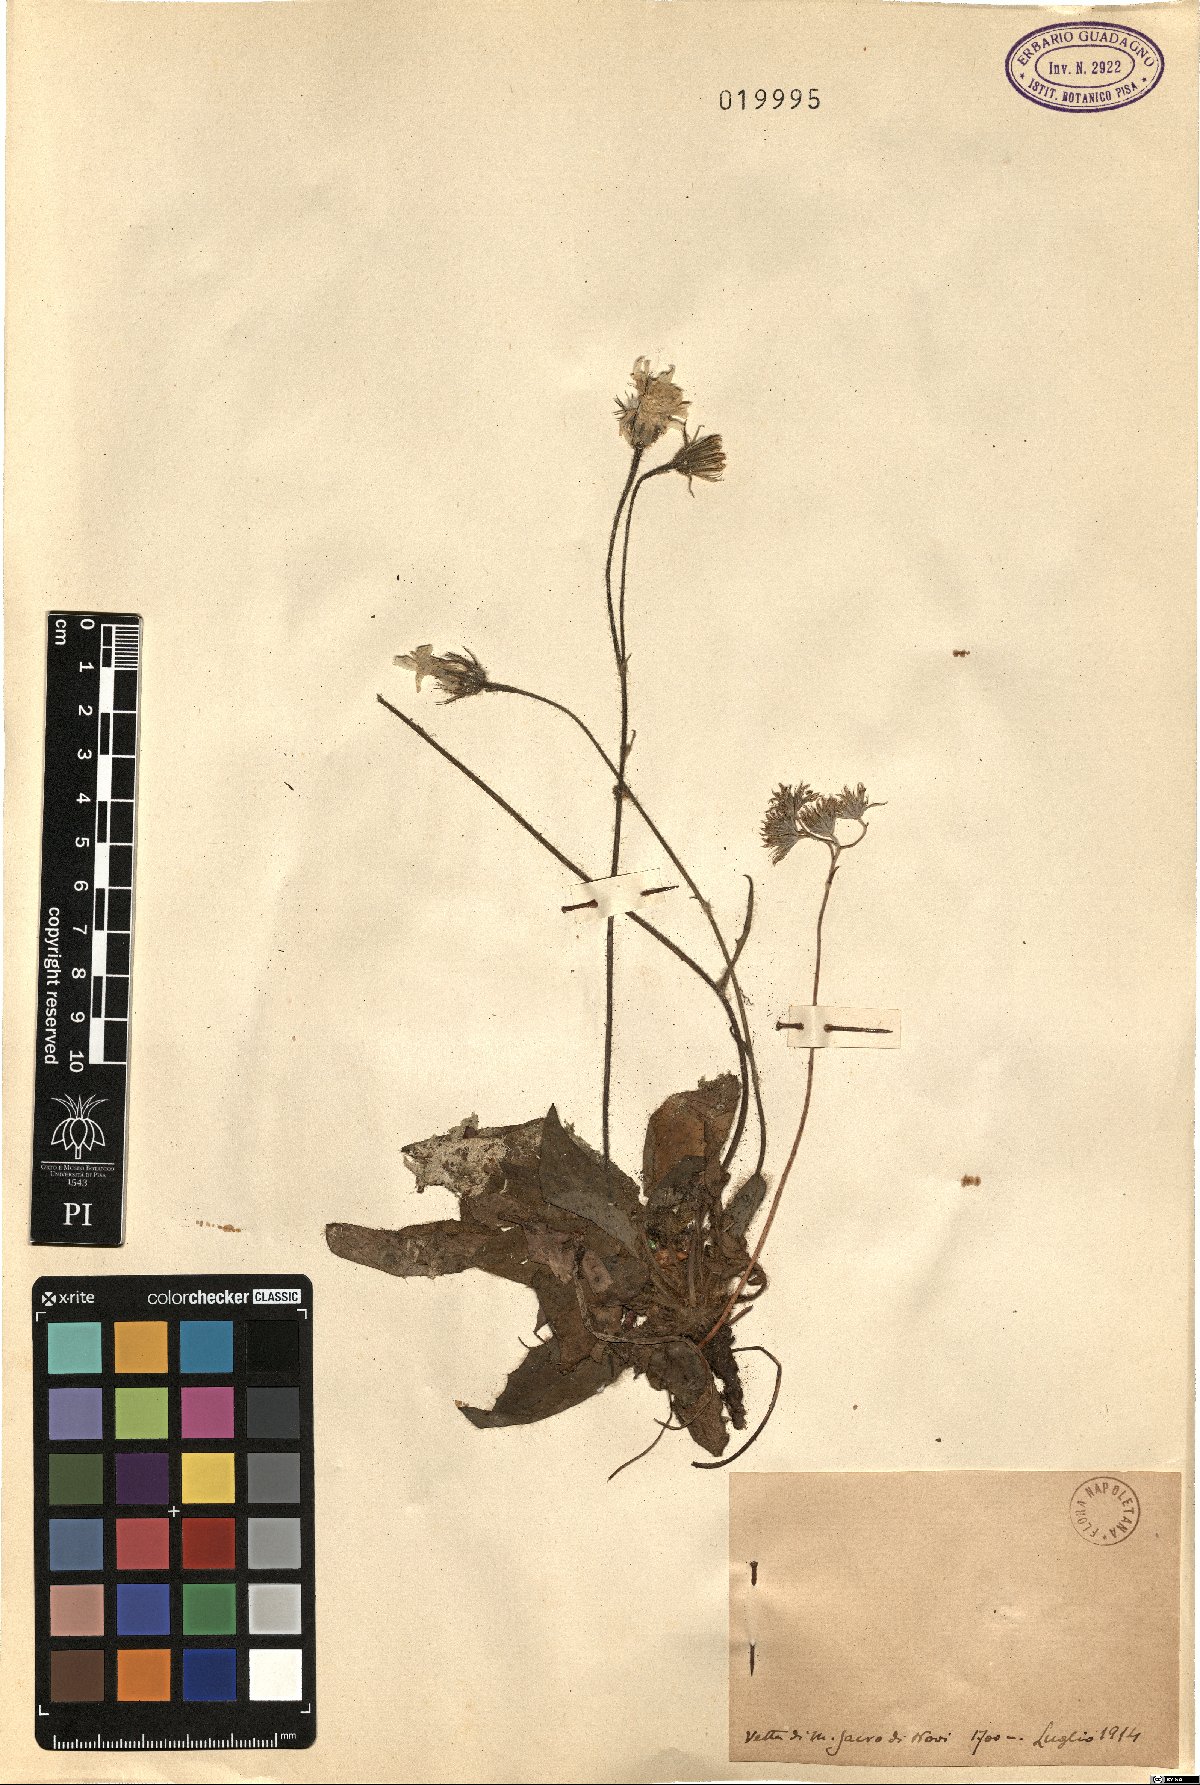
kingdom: Plantae
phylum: Tracheophyta
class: Magnoliopsida
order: Asterales
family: Asteraceae
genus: Hieracium
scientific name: Hieracium
